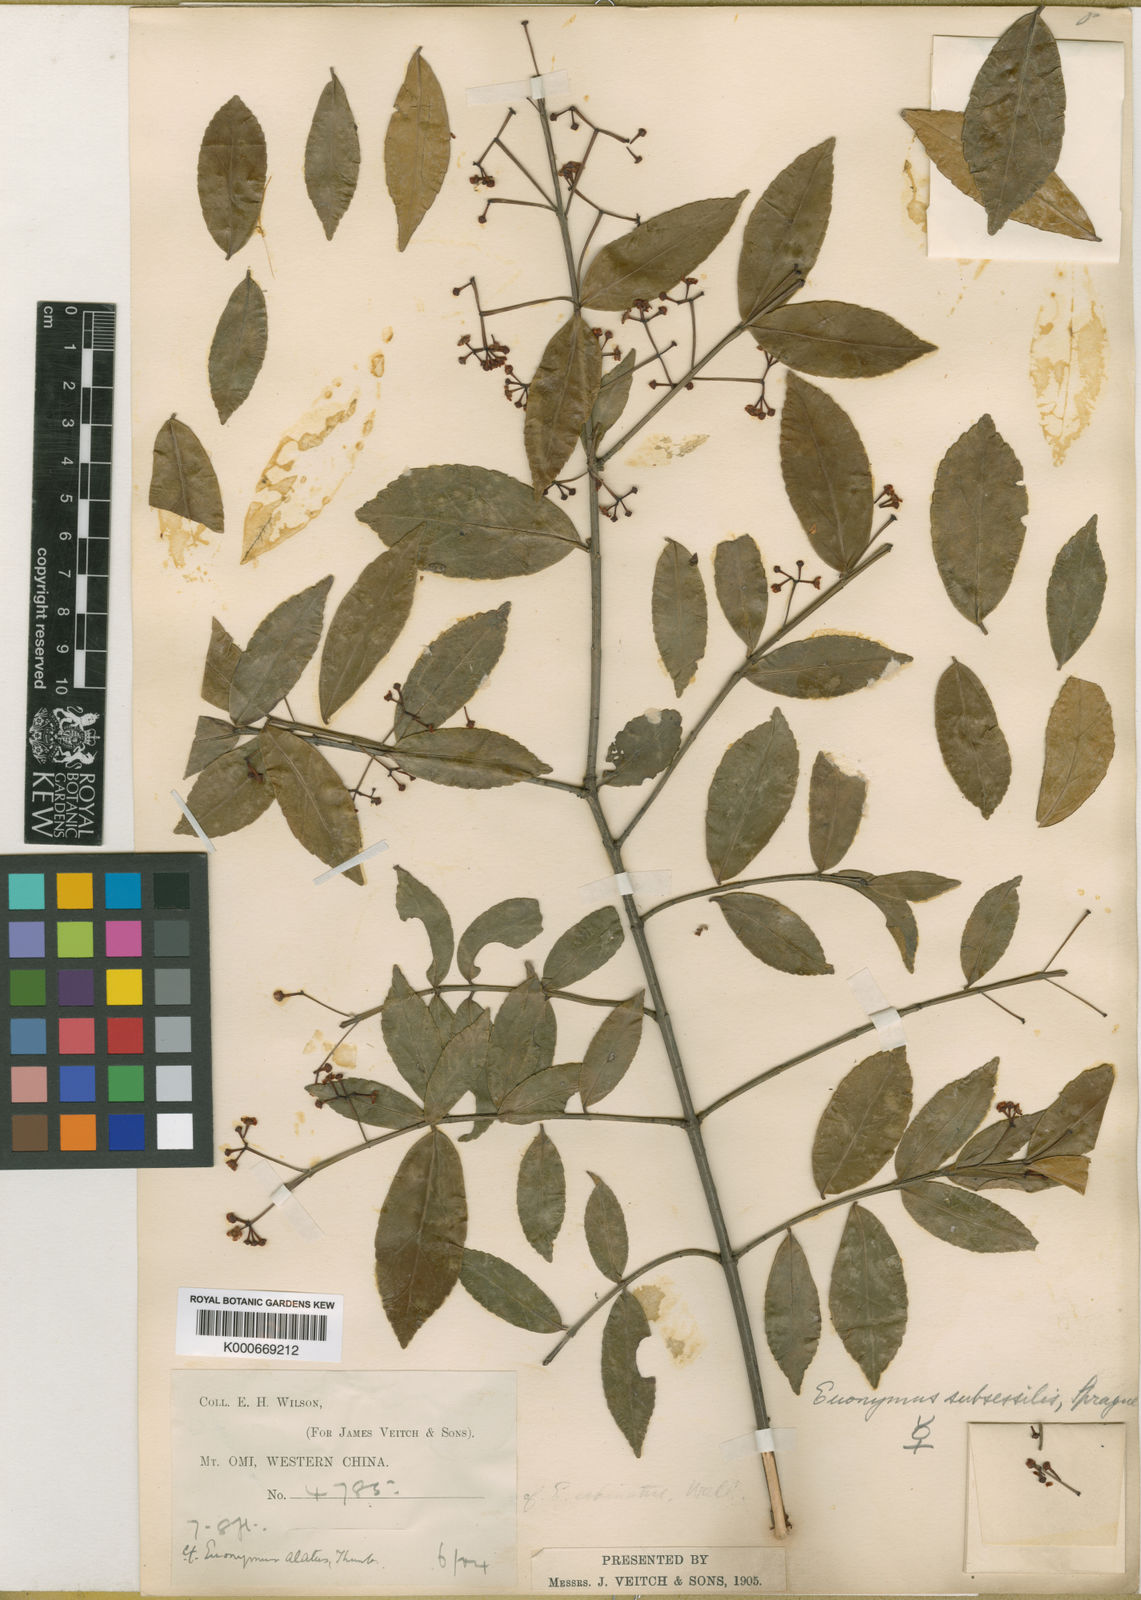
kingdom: Plantae
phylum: Tracheophyta
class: Magnoliopsida
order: Celastrales
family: Celastraceae
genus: Euonymus
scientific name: Euonymus echinatus
